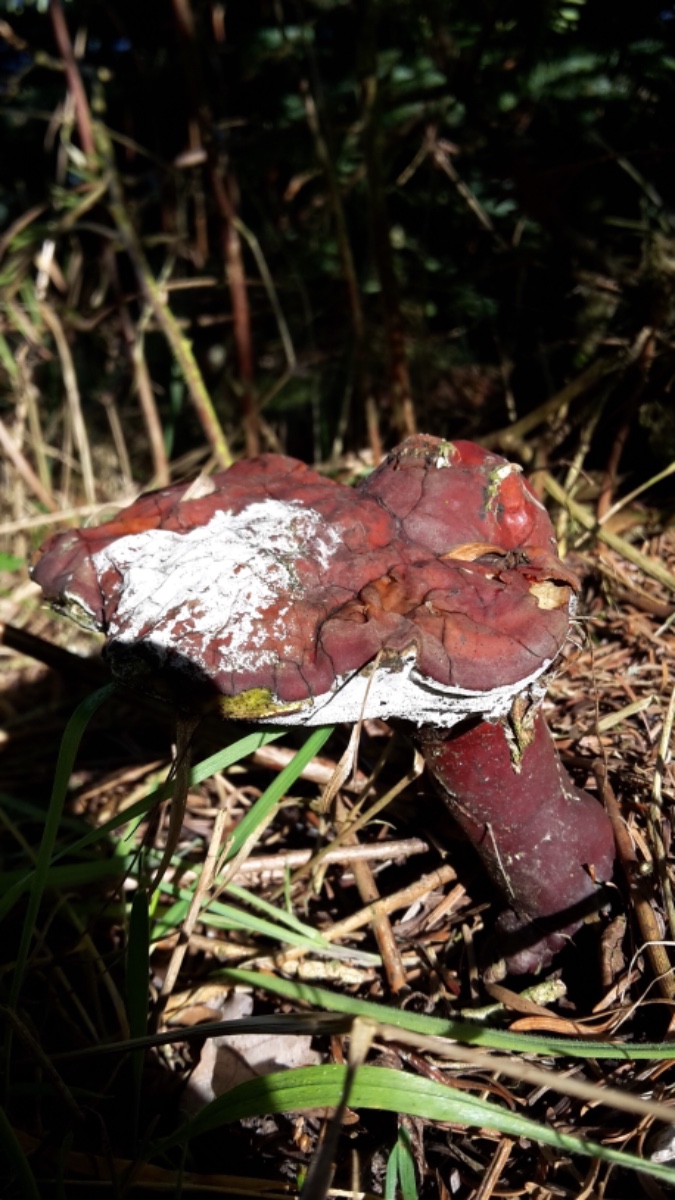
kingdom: Fungi
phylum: Basidiomycota
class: Agaricomycetes
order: Polyporales
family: Polyporaceae
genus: Ganoderma
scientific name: Ganoderma lucidum
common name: skinnende lakporesvamp
